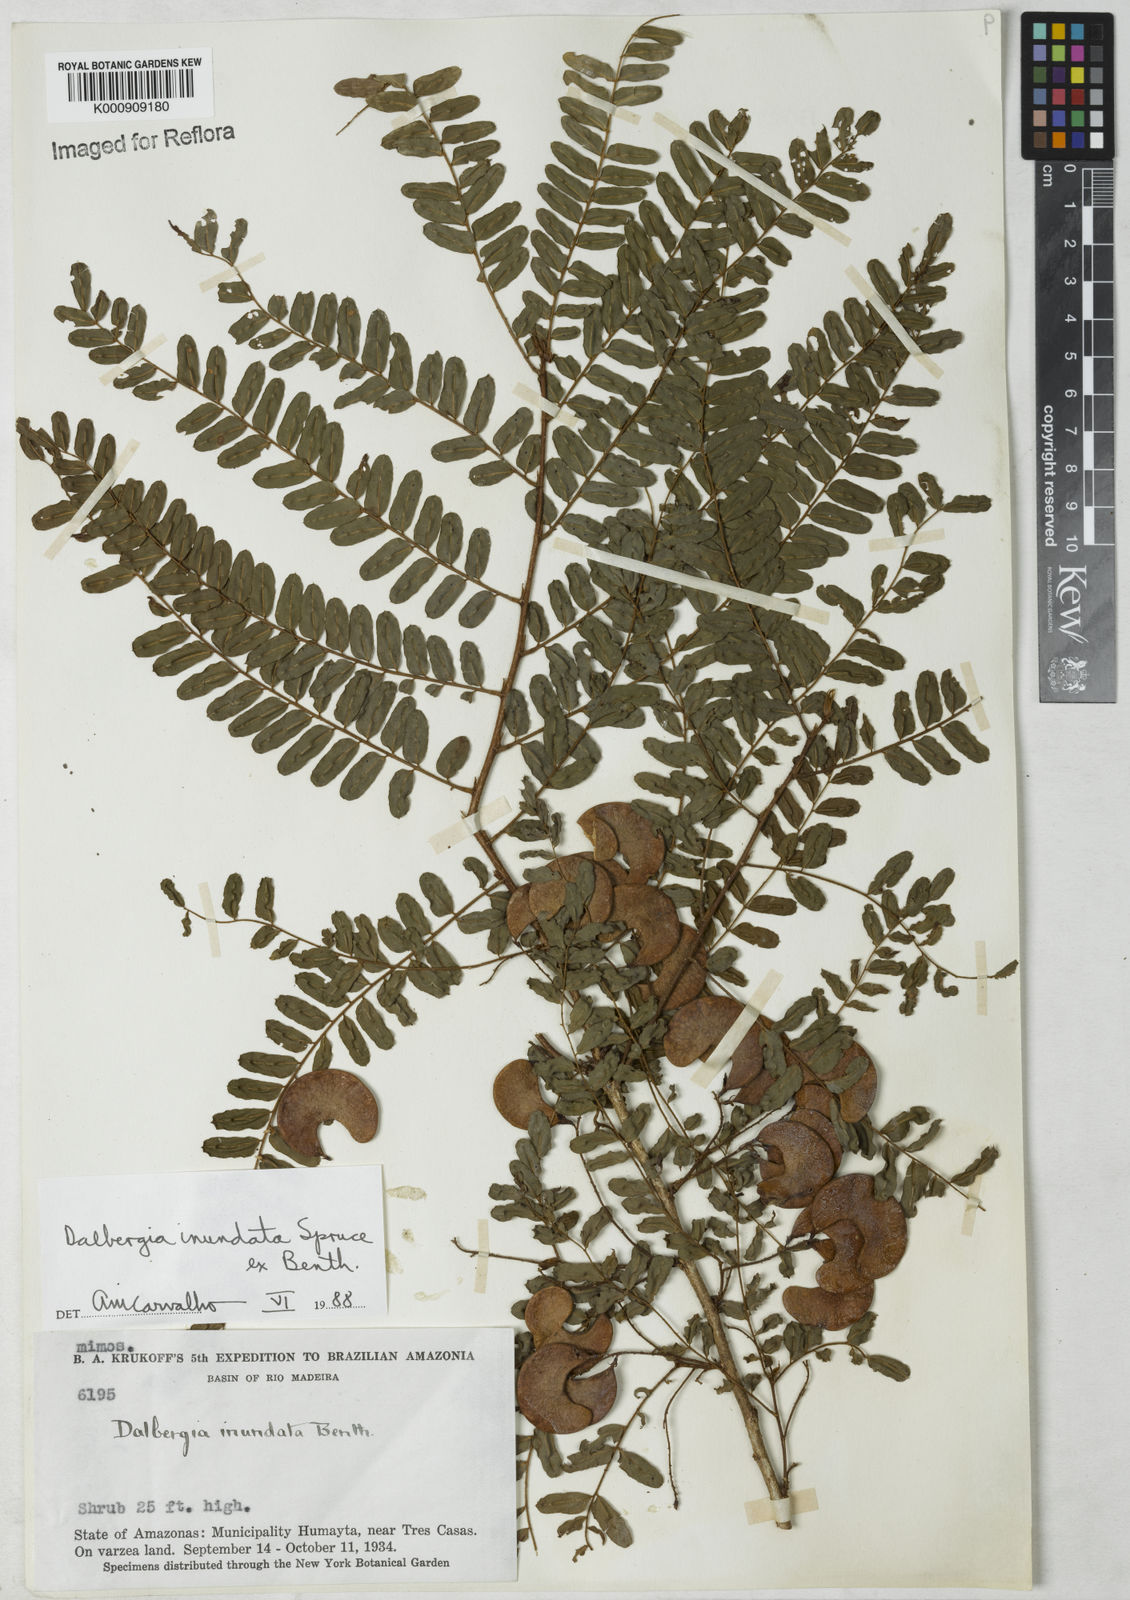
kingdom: Plantae
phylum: Tracheophyta
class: Magnoliopsida
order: Fabales
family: Fabaceae
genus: Dalbergia
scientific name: Dalbergia inundata
